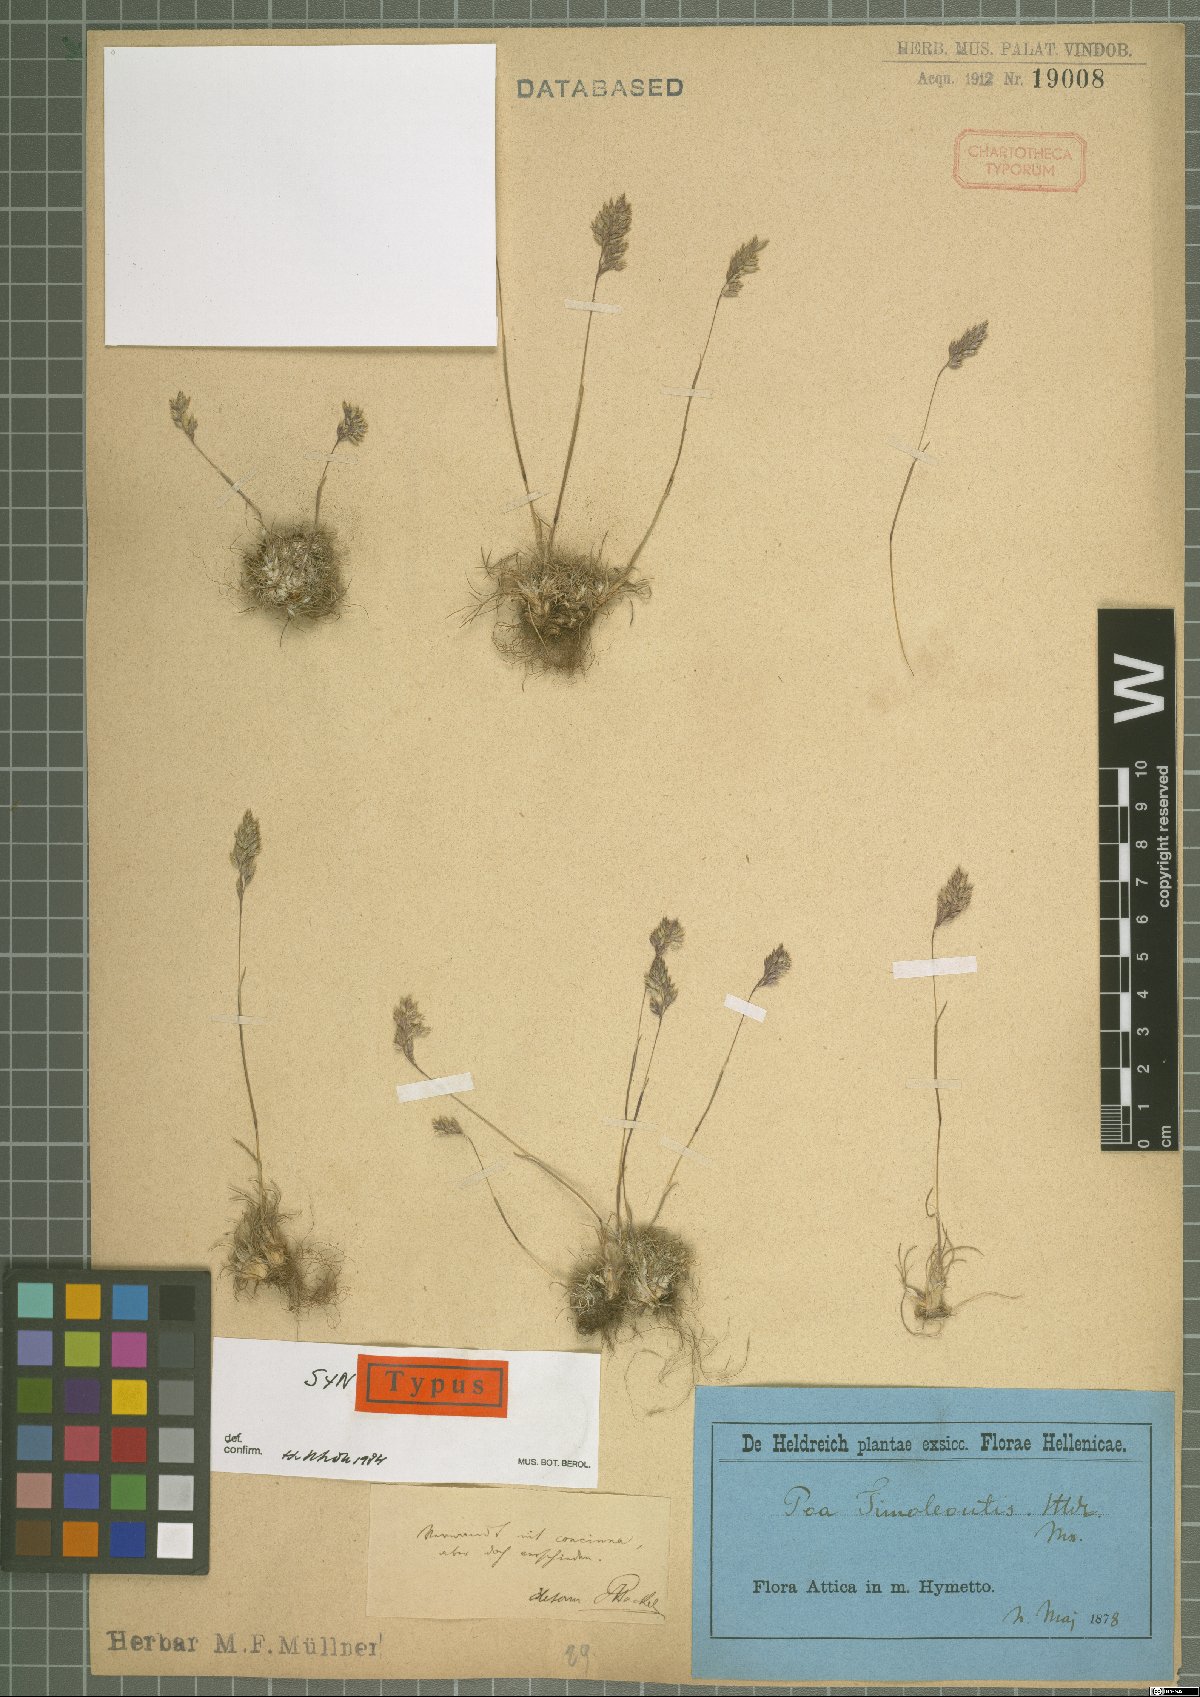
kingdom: Plantae
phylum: Tracheophyta
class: Liliopsida
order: Poales
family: Poaceae
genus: Poa
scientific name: Poa timoleontis
